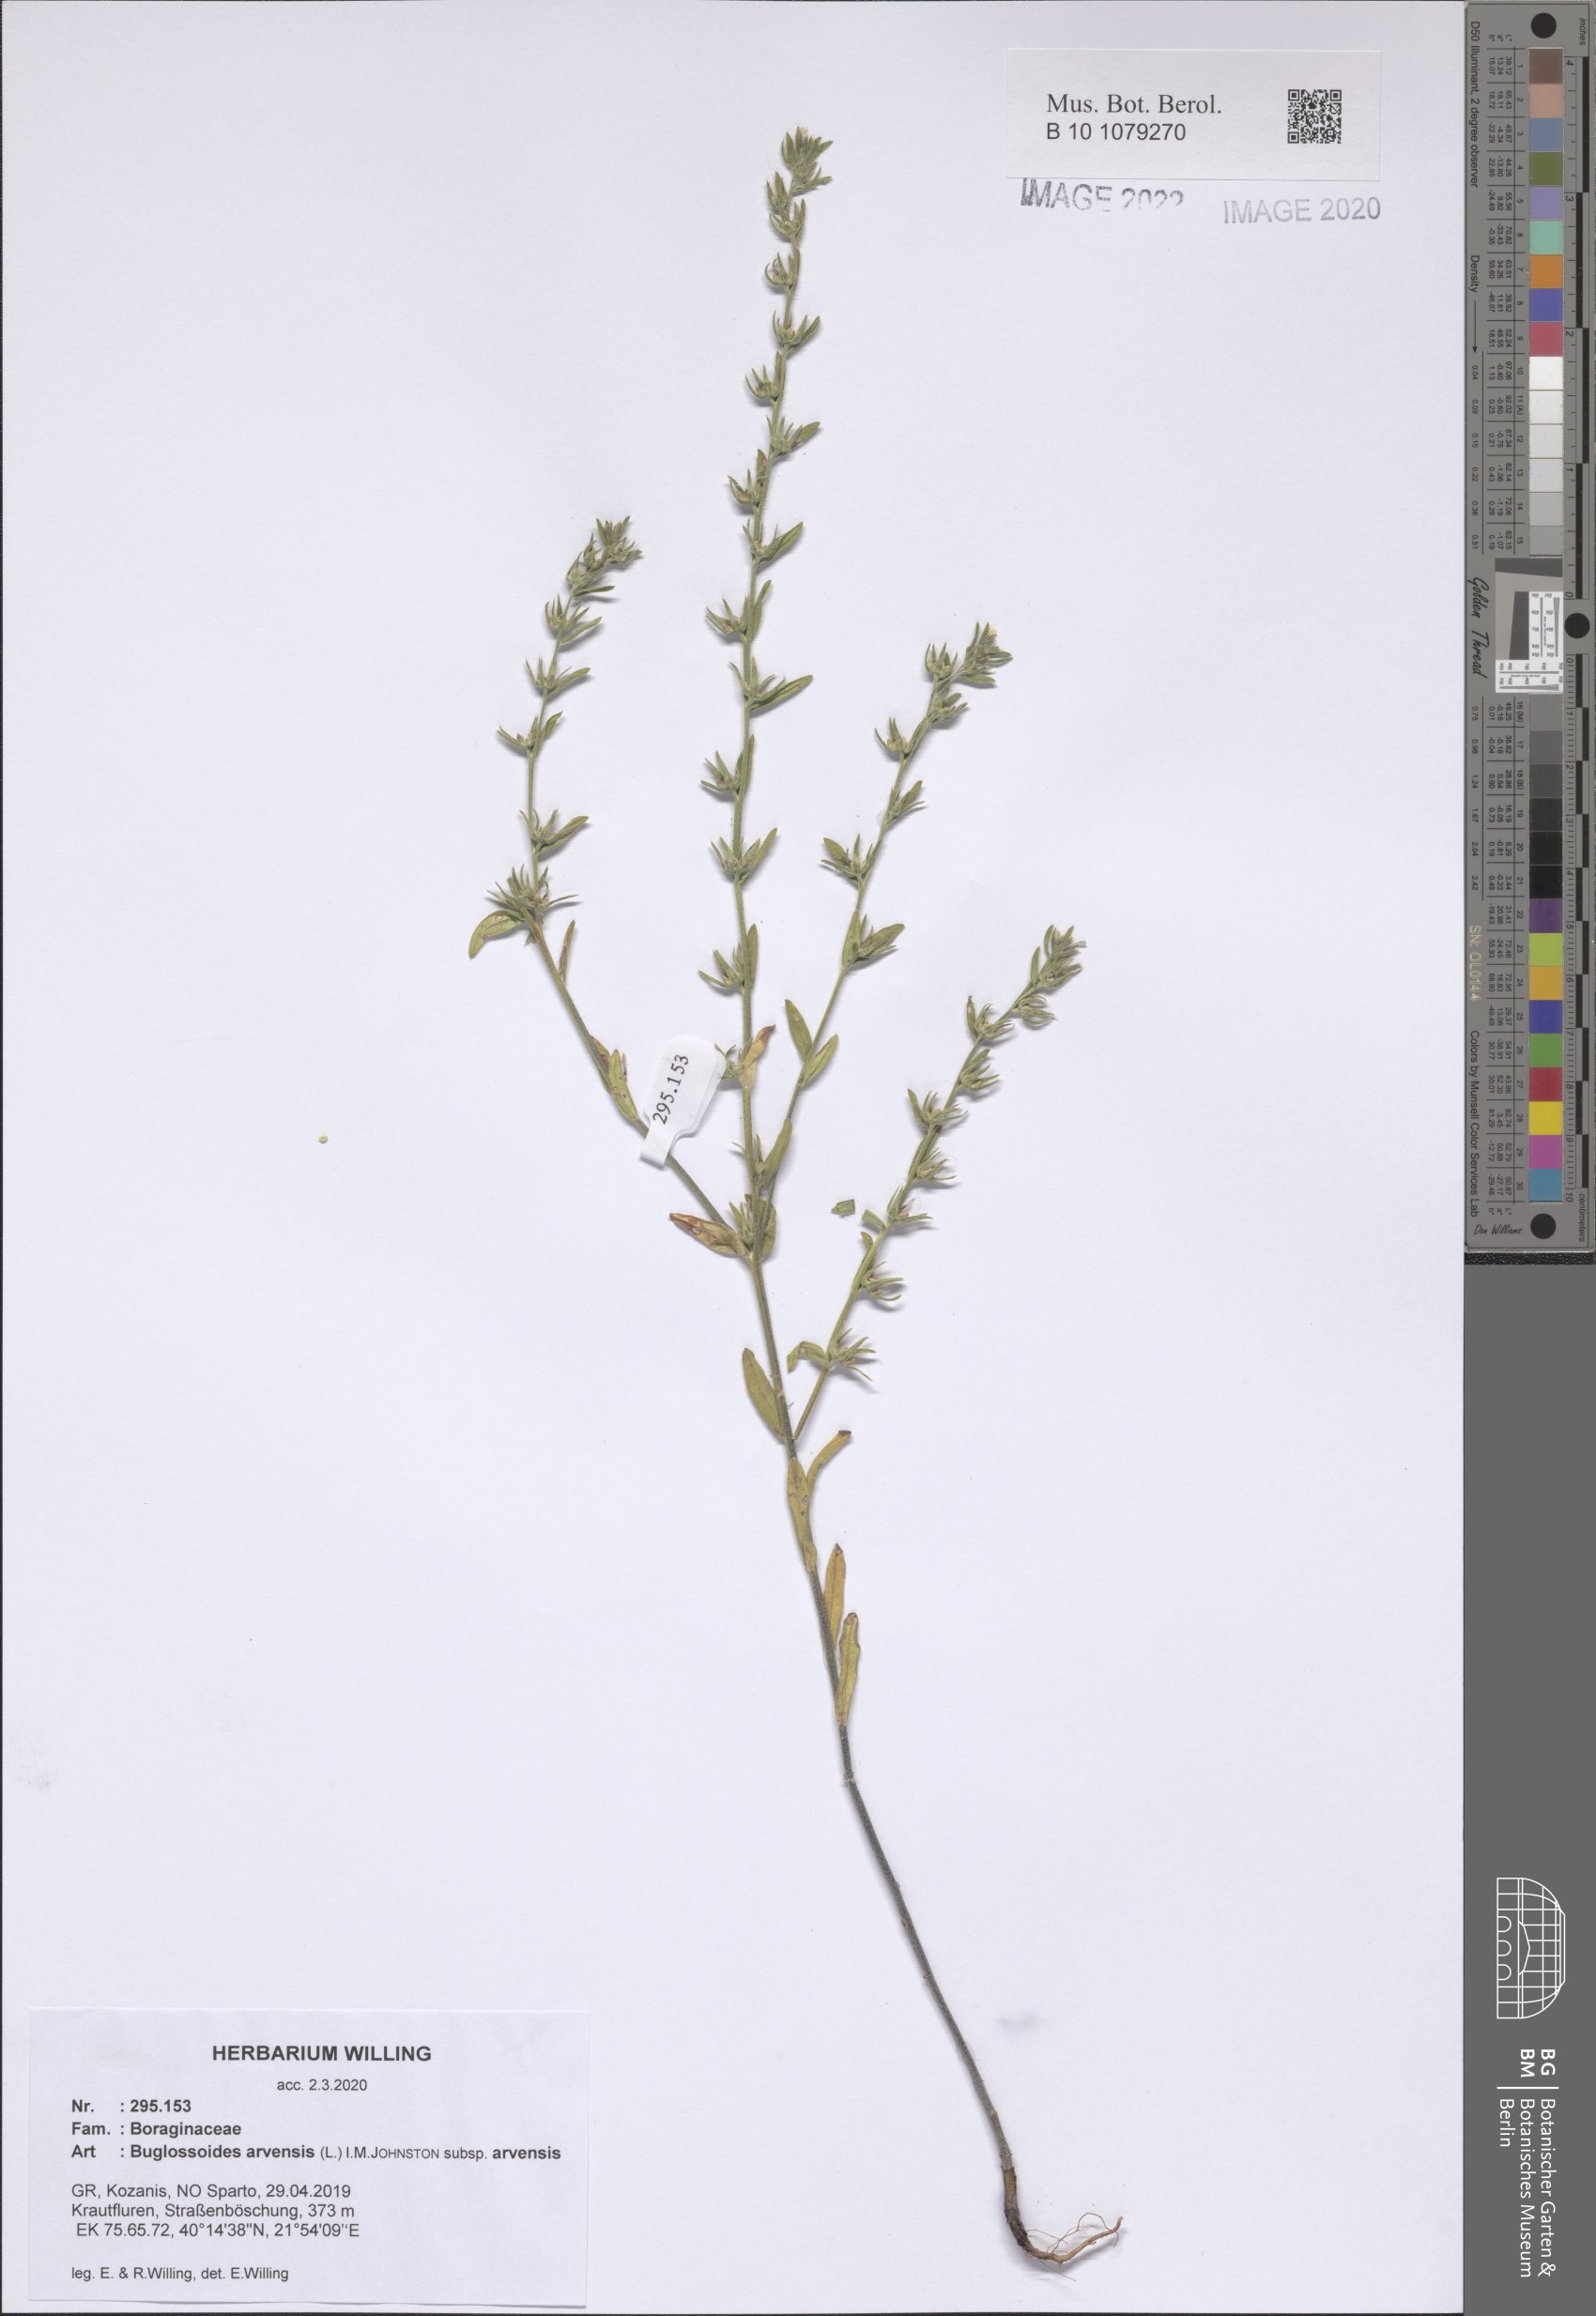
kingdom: Plantae
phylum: Tracheophyta
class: Magnoliopsida
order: Boraginales
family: Boraginaceae
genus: Buglossoides
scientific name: Buglossoides arvensis
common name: Corn gromwell
